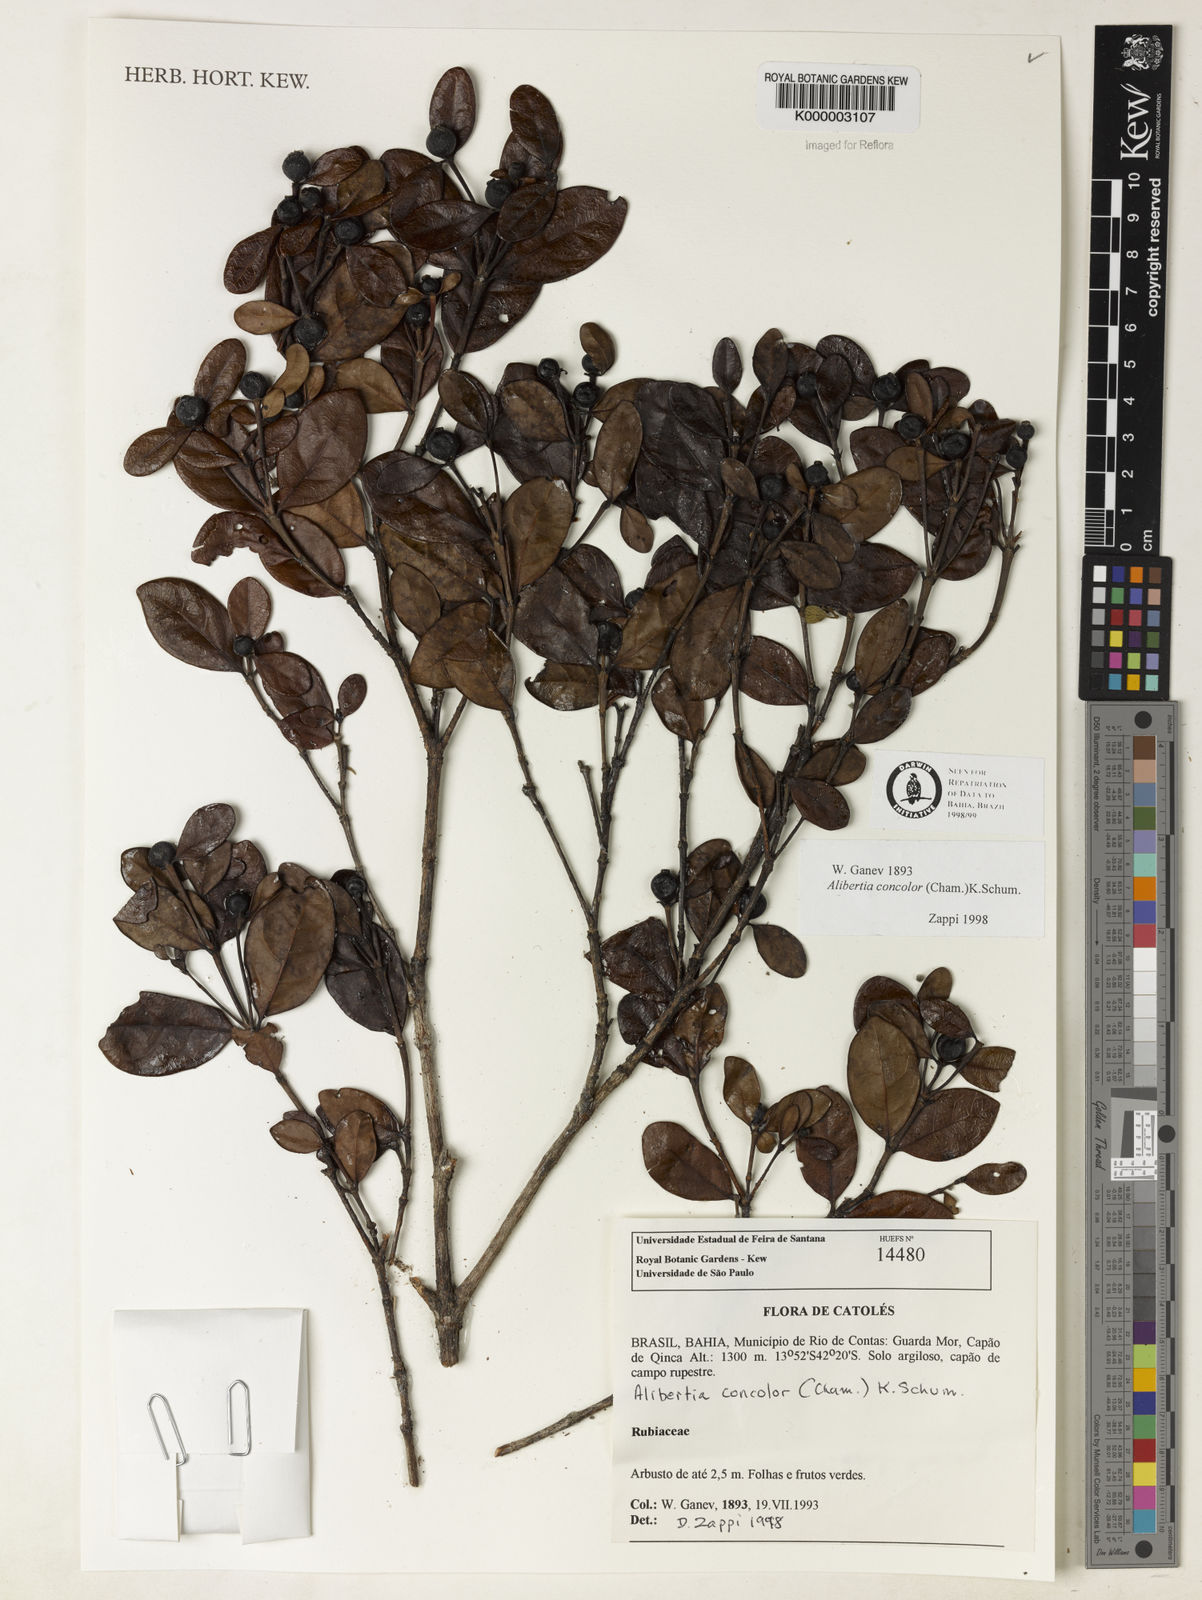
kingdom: Plantae
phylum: Tracheophyta
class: Magnoliopsida
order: Gentianales
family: Rubiaceae
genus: Cordiera
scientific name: Cordiera concolor
